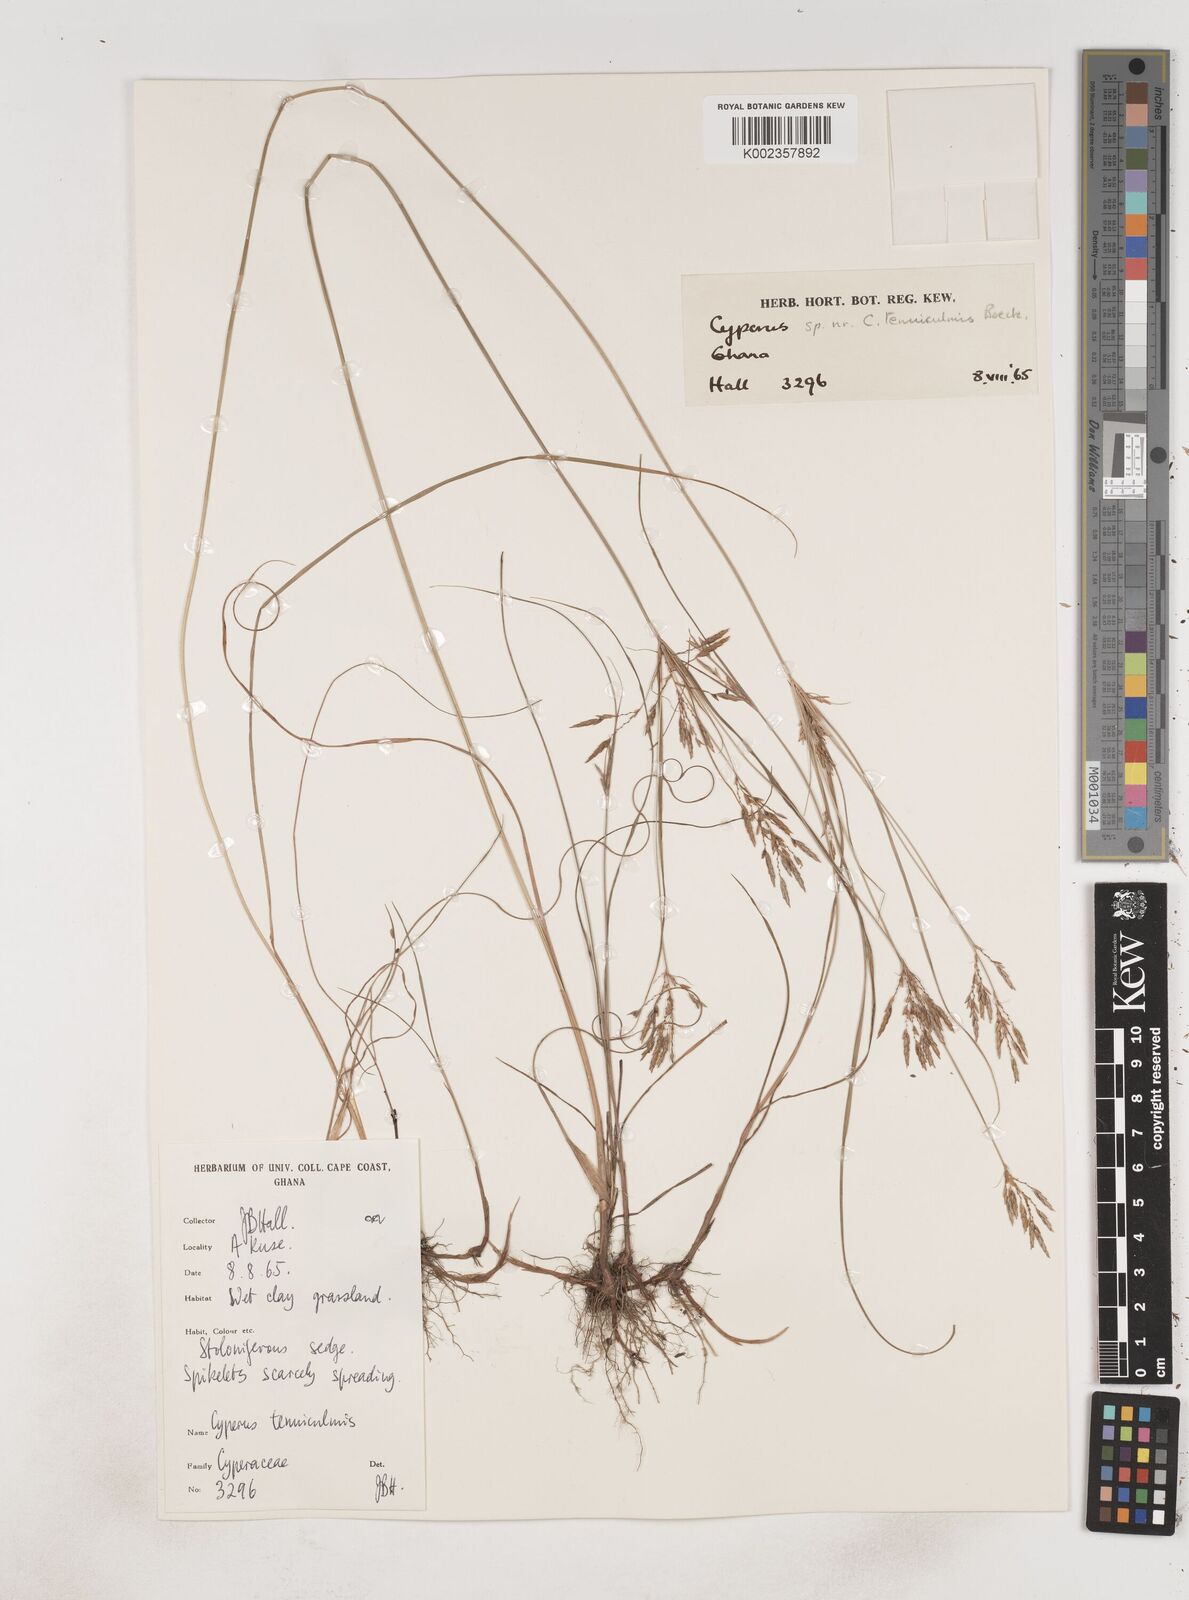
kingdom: Plantae
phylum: Tracheophyta
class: Liliopsida
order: Poales
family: Cyperaceae
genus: Cyperus
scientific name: Cyperus
